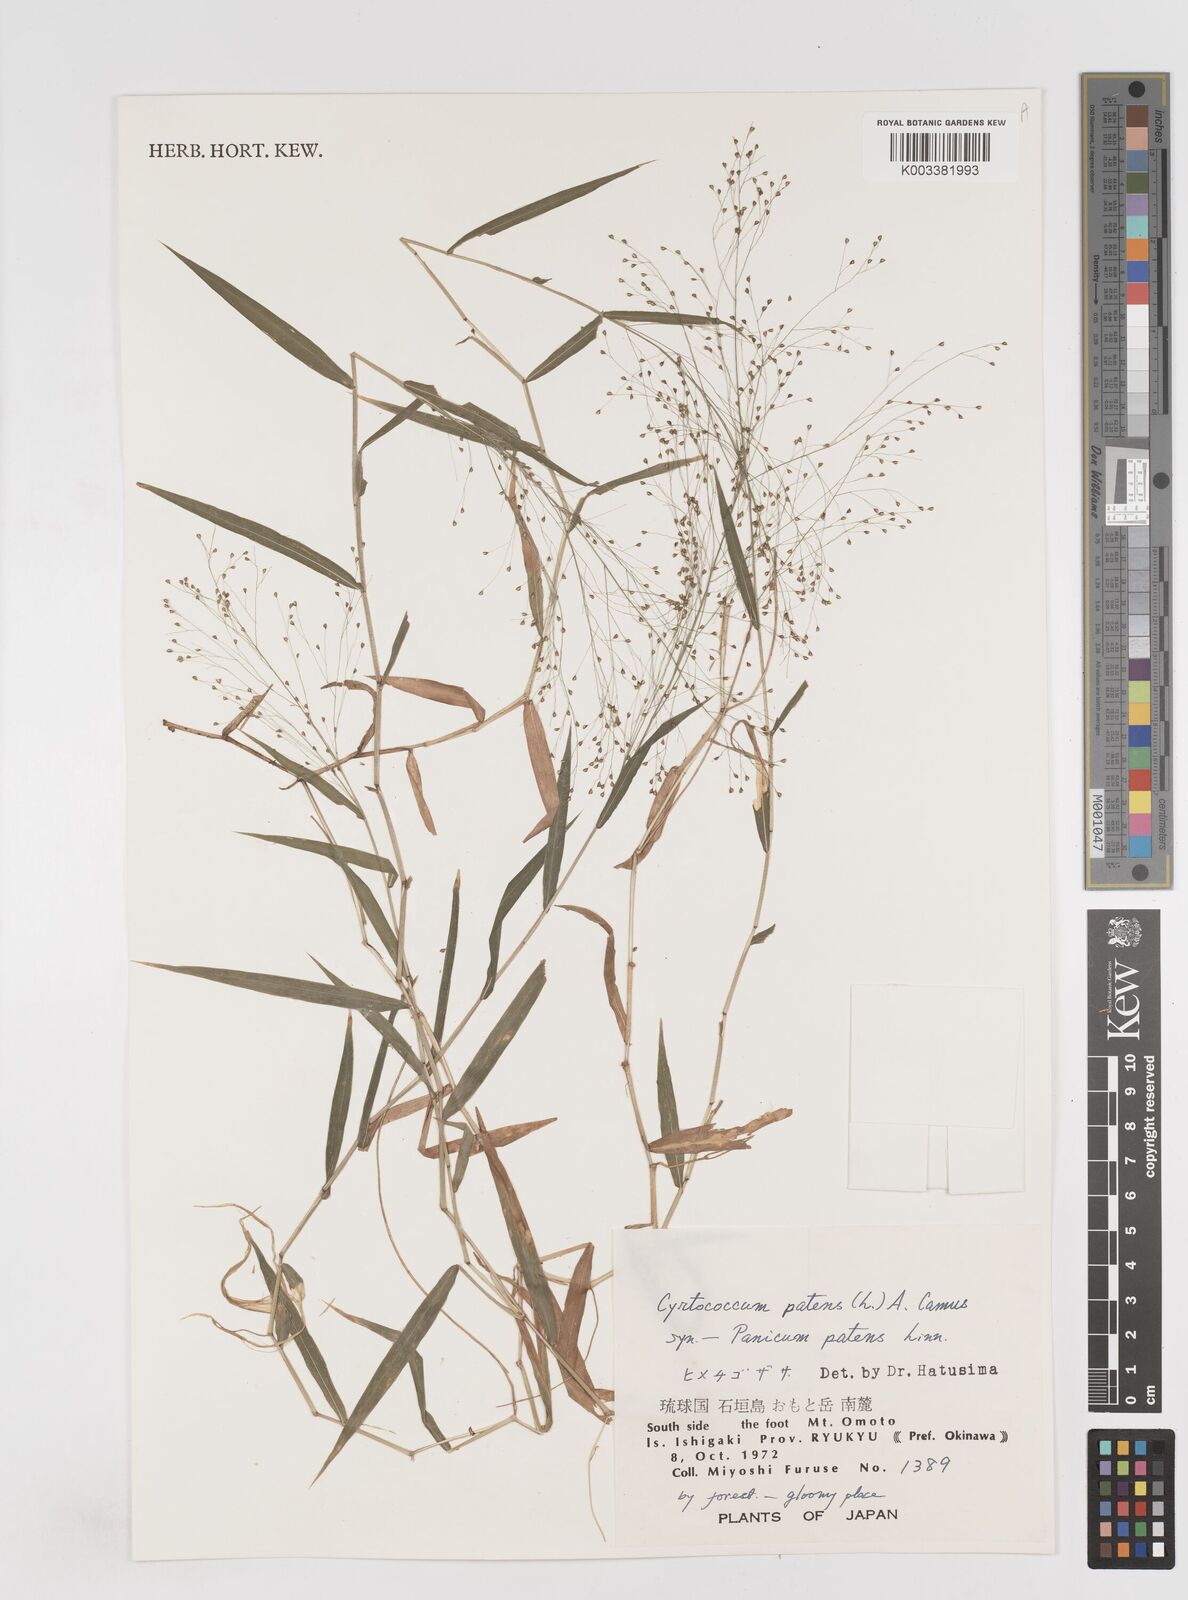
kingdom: Plantae
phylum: Tracheophyta
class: Liliopsida
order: Poales
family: Poaceae
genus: Cyrtococcum
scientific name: Cyrtococcum patens
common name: Broad-leaved bowgrass
